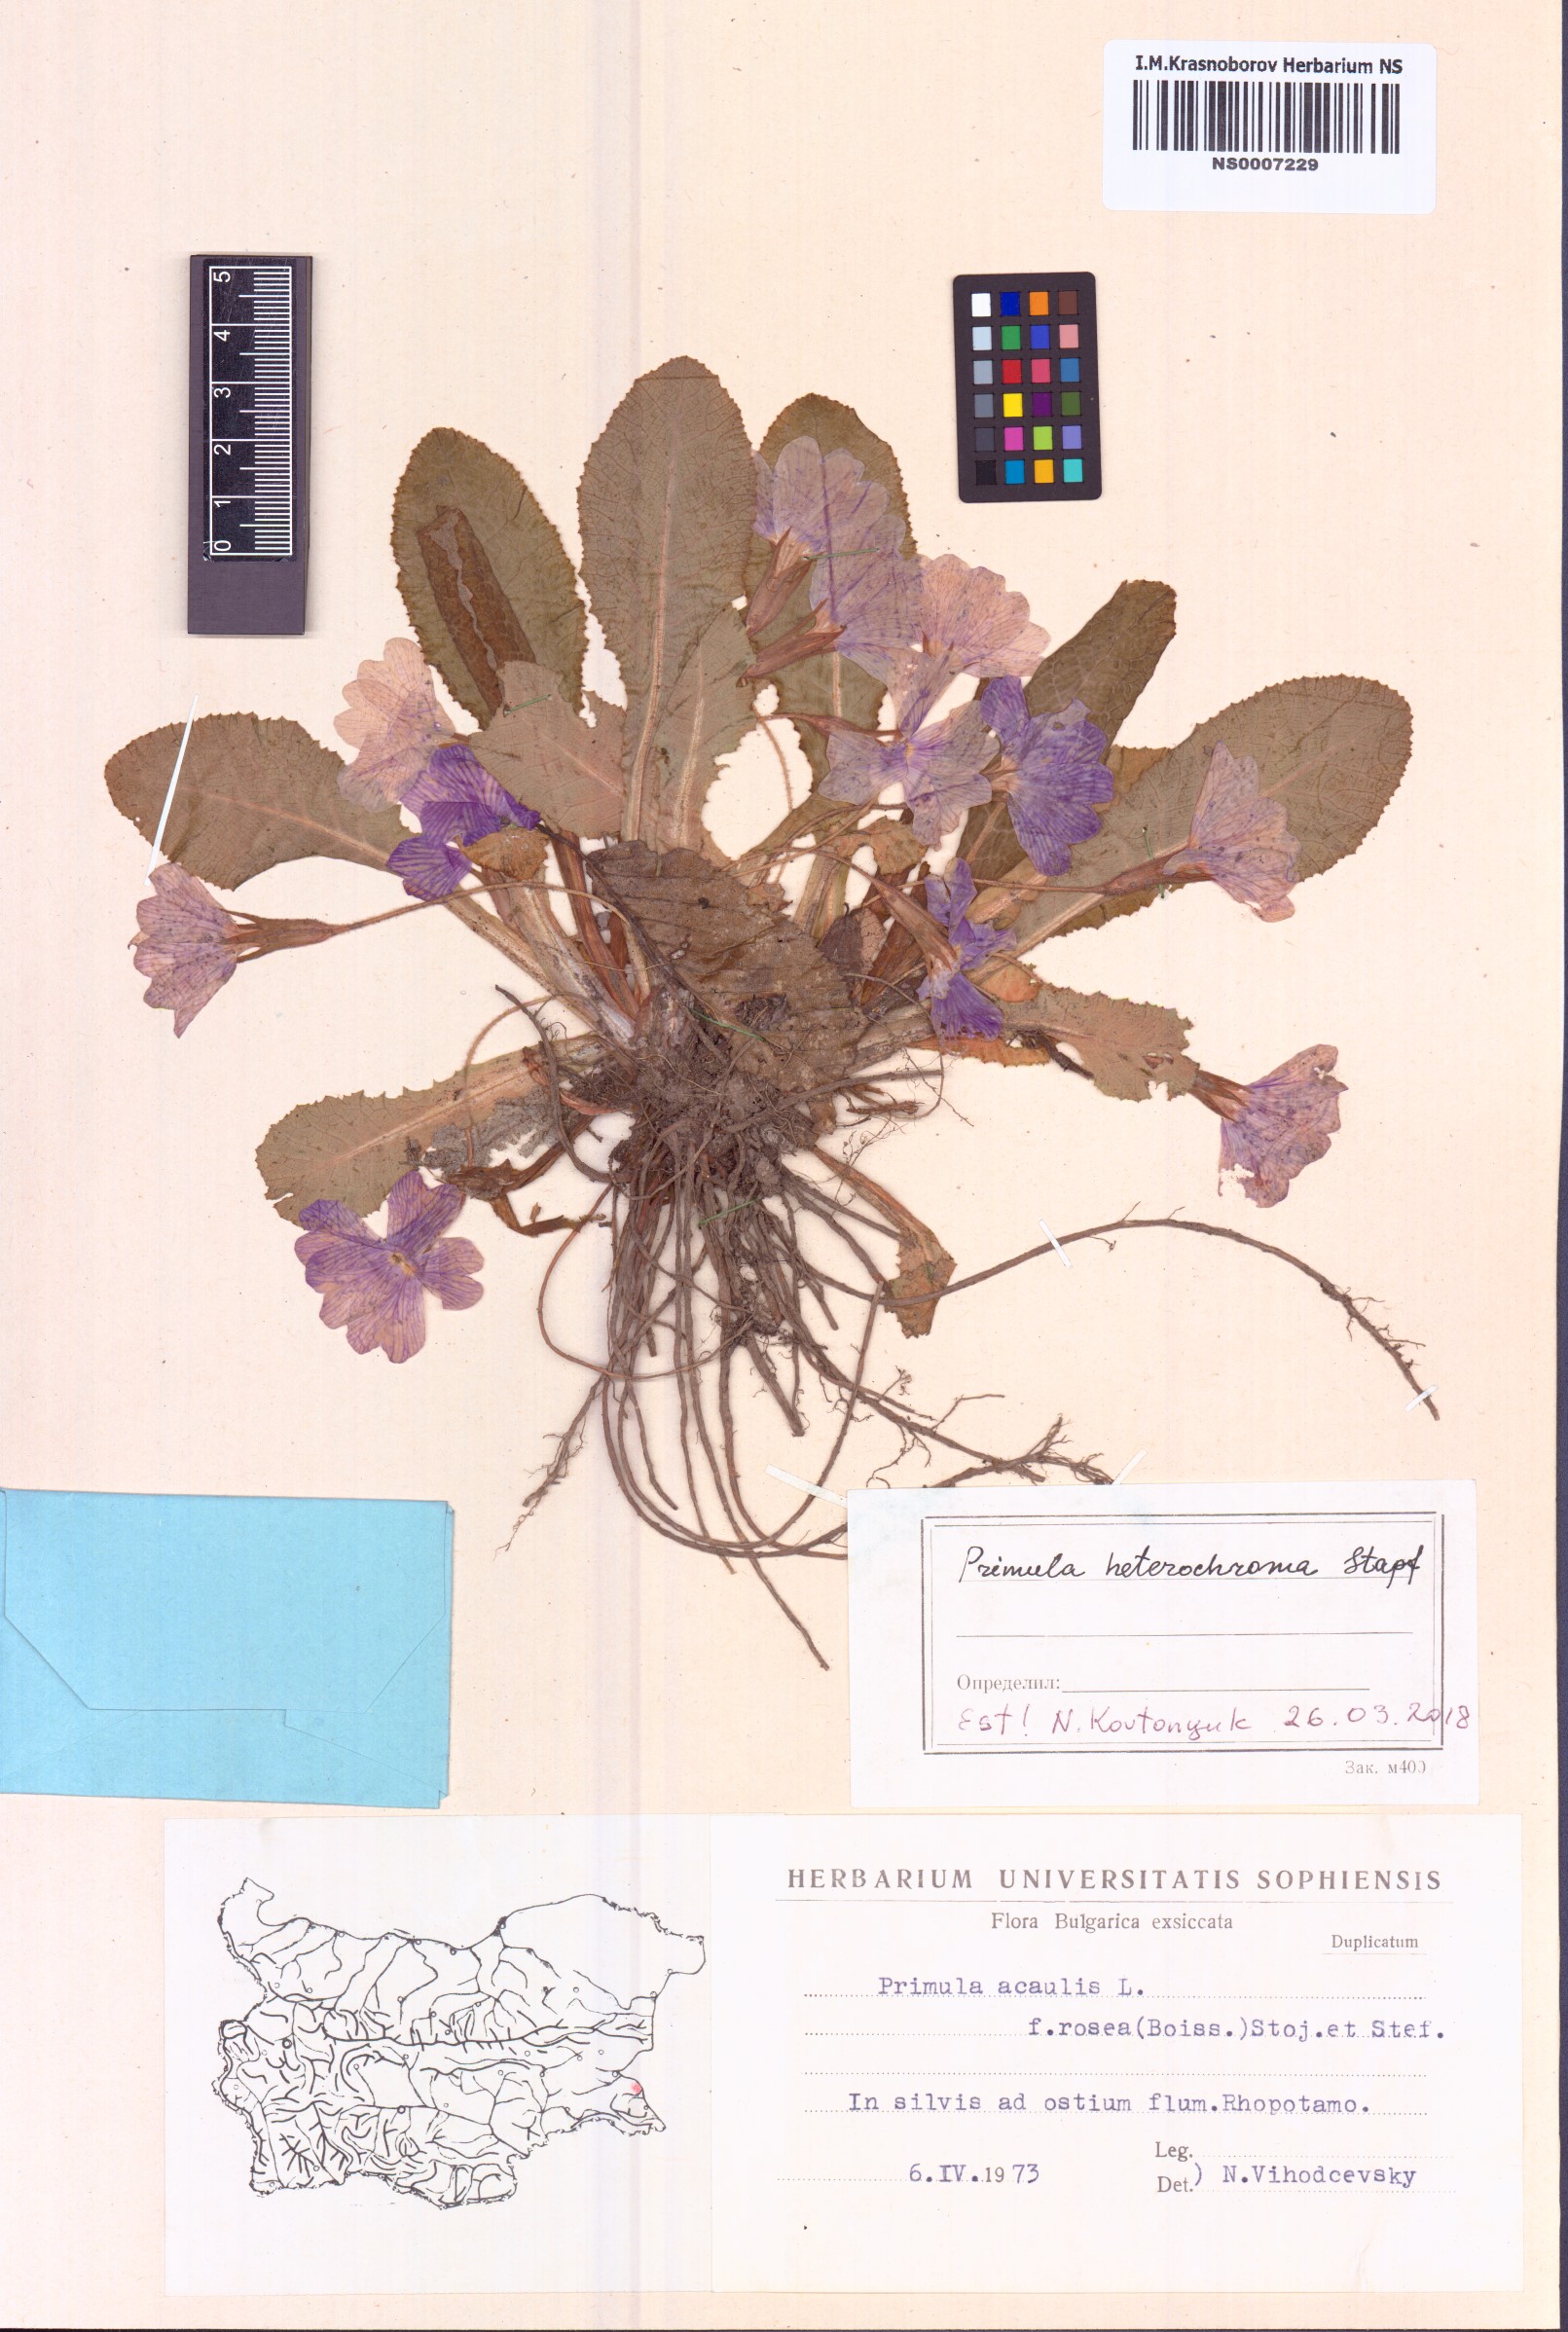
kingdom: Plantae
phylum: Tracheophyta
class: Magnoliopsida
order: Ericales
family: Primulaceae
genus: Primula
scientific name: Primula vulgaris
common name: Primrose
